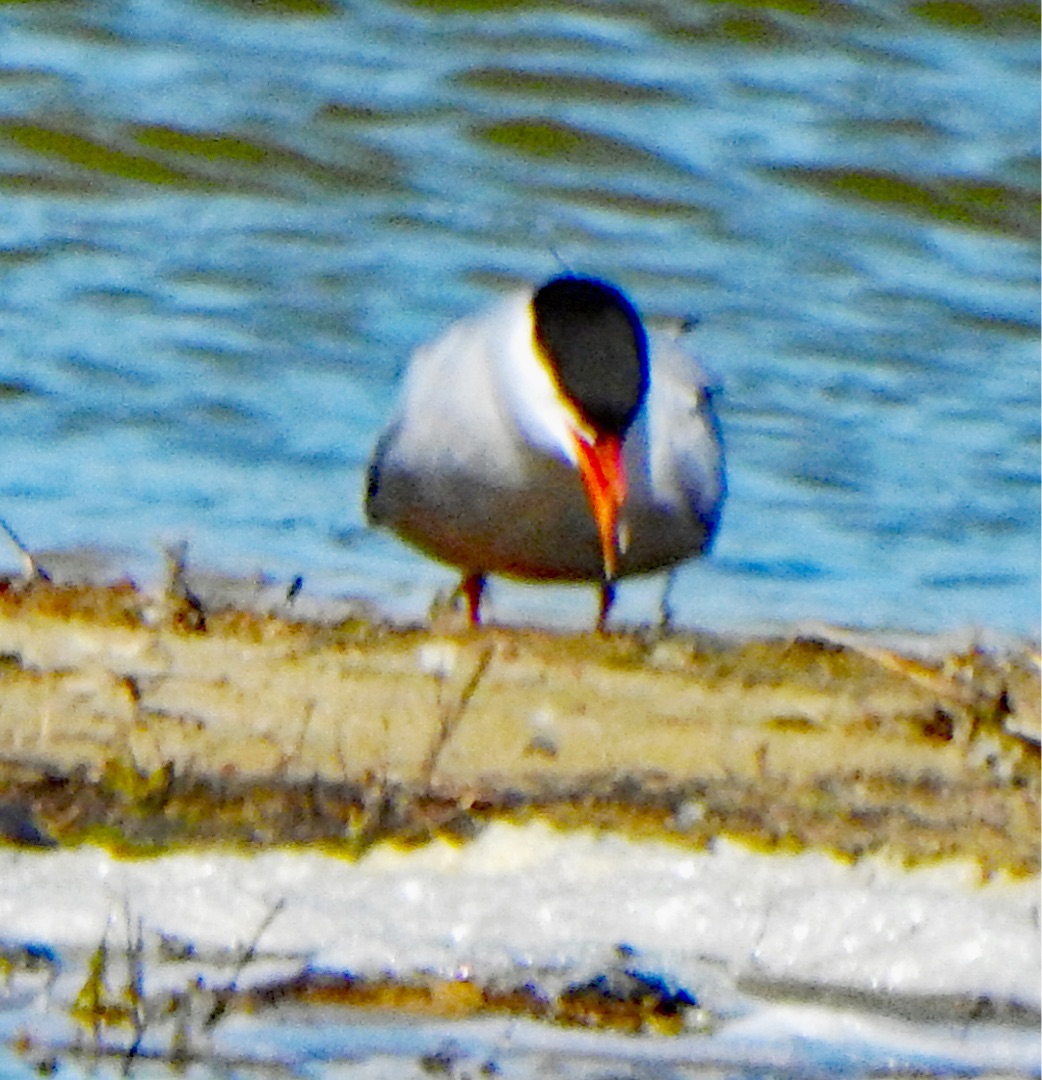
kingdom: Animalia
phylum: Chordata
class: Aves
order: Charadriiformes
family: Laridae
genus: Sterna
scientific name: Sterna hirundo
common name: Fjordterne
